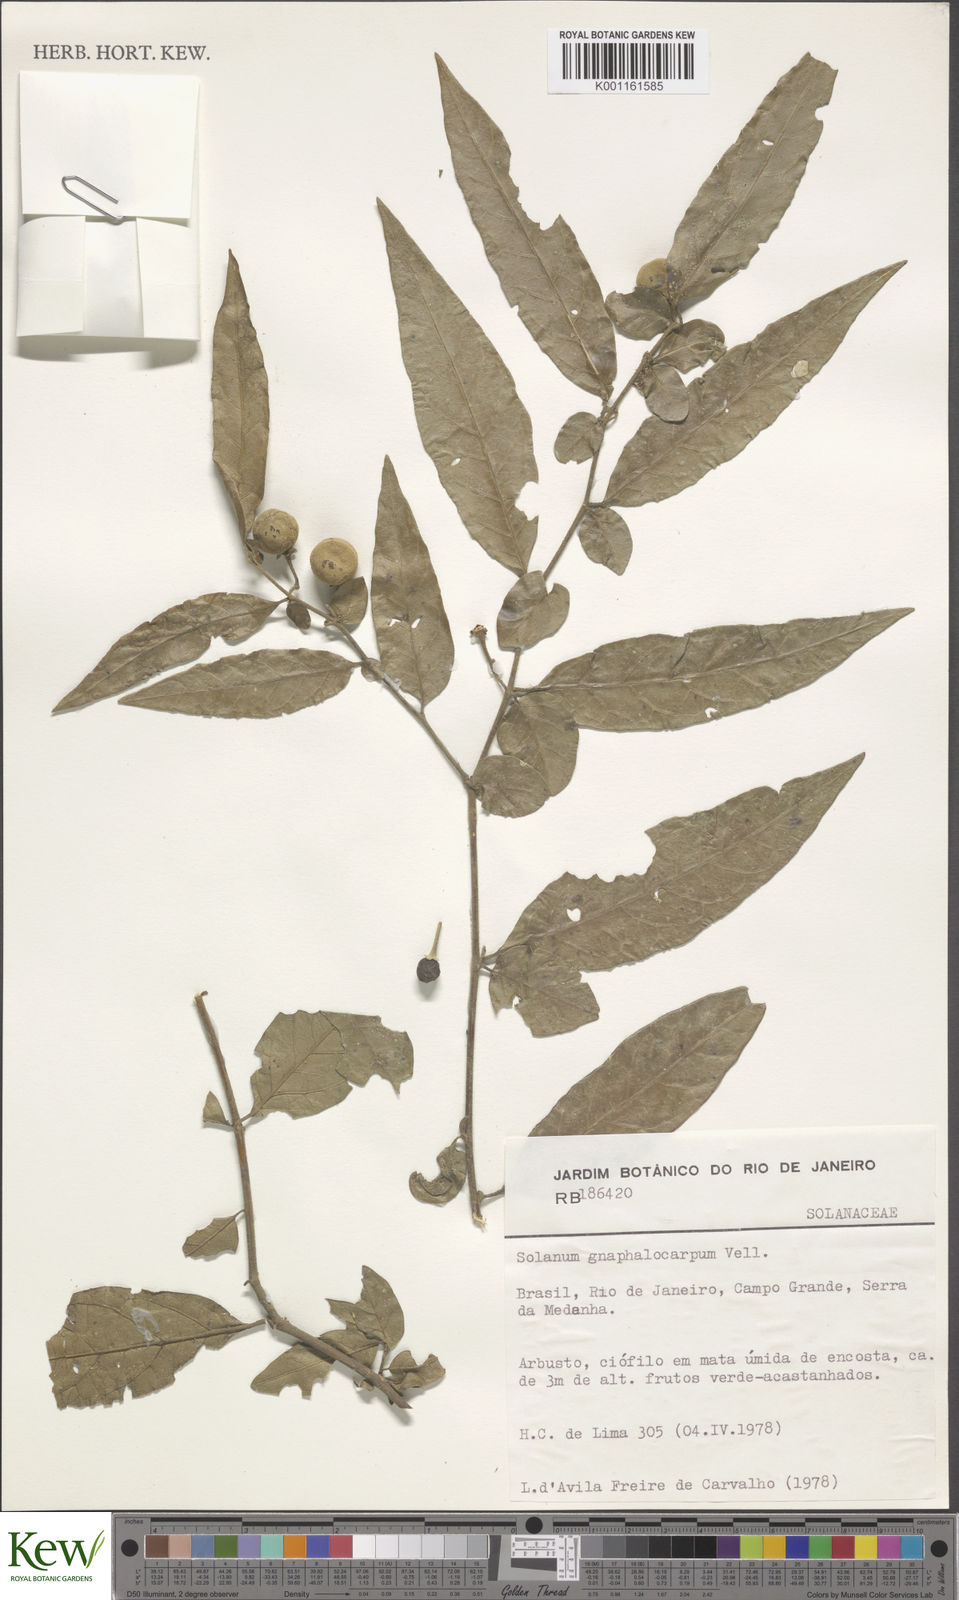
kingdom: Plantae
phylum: Tracheophyta
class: Magnoliopsida
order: Solanales
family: Solanaceae
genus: Solanum
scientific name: Solanum gnaphalocarpum
